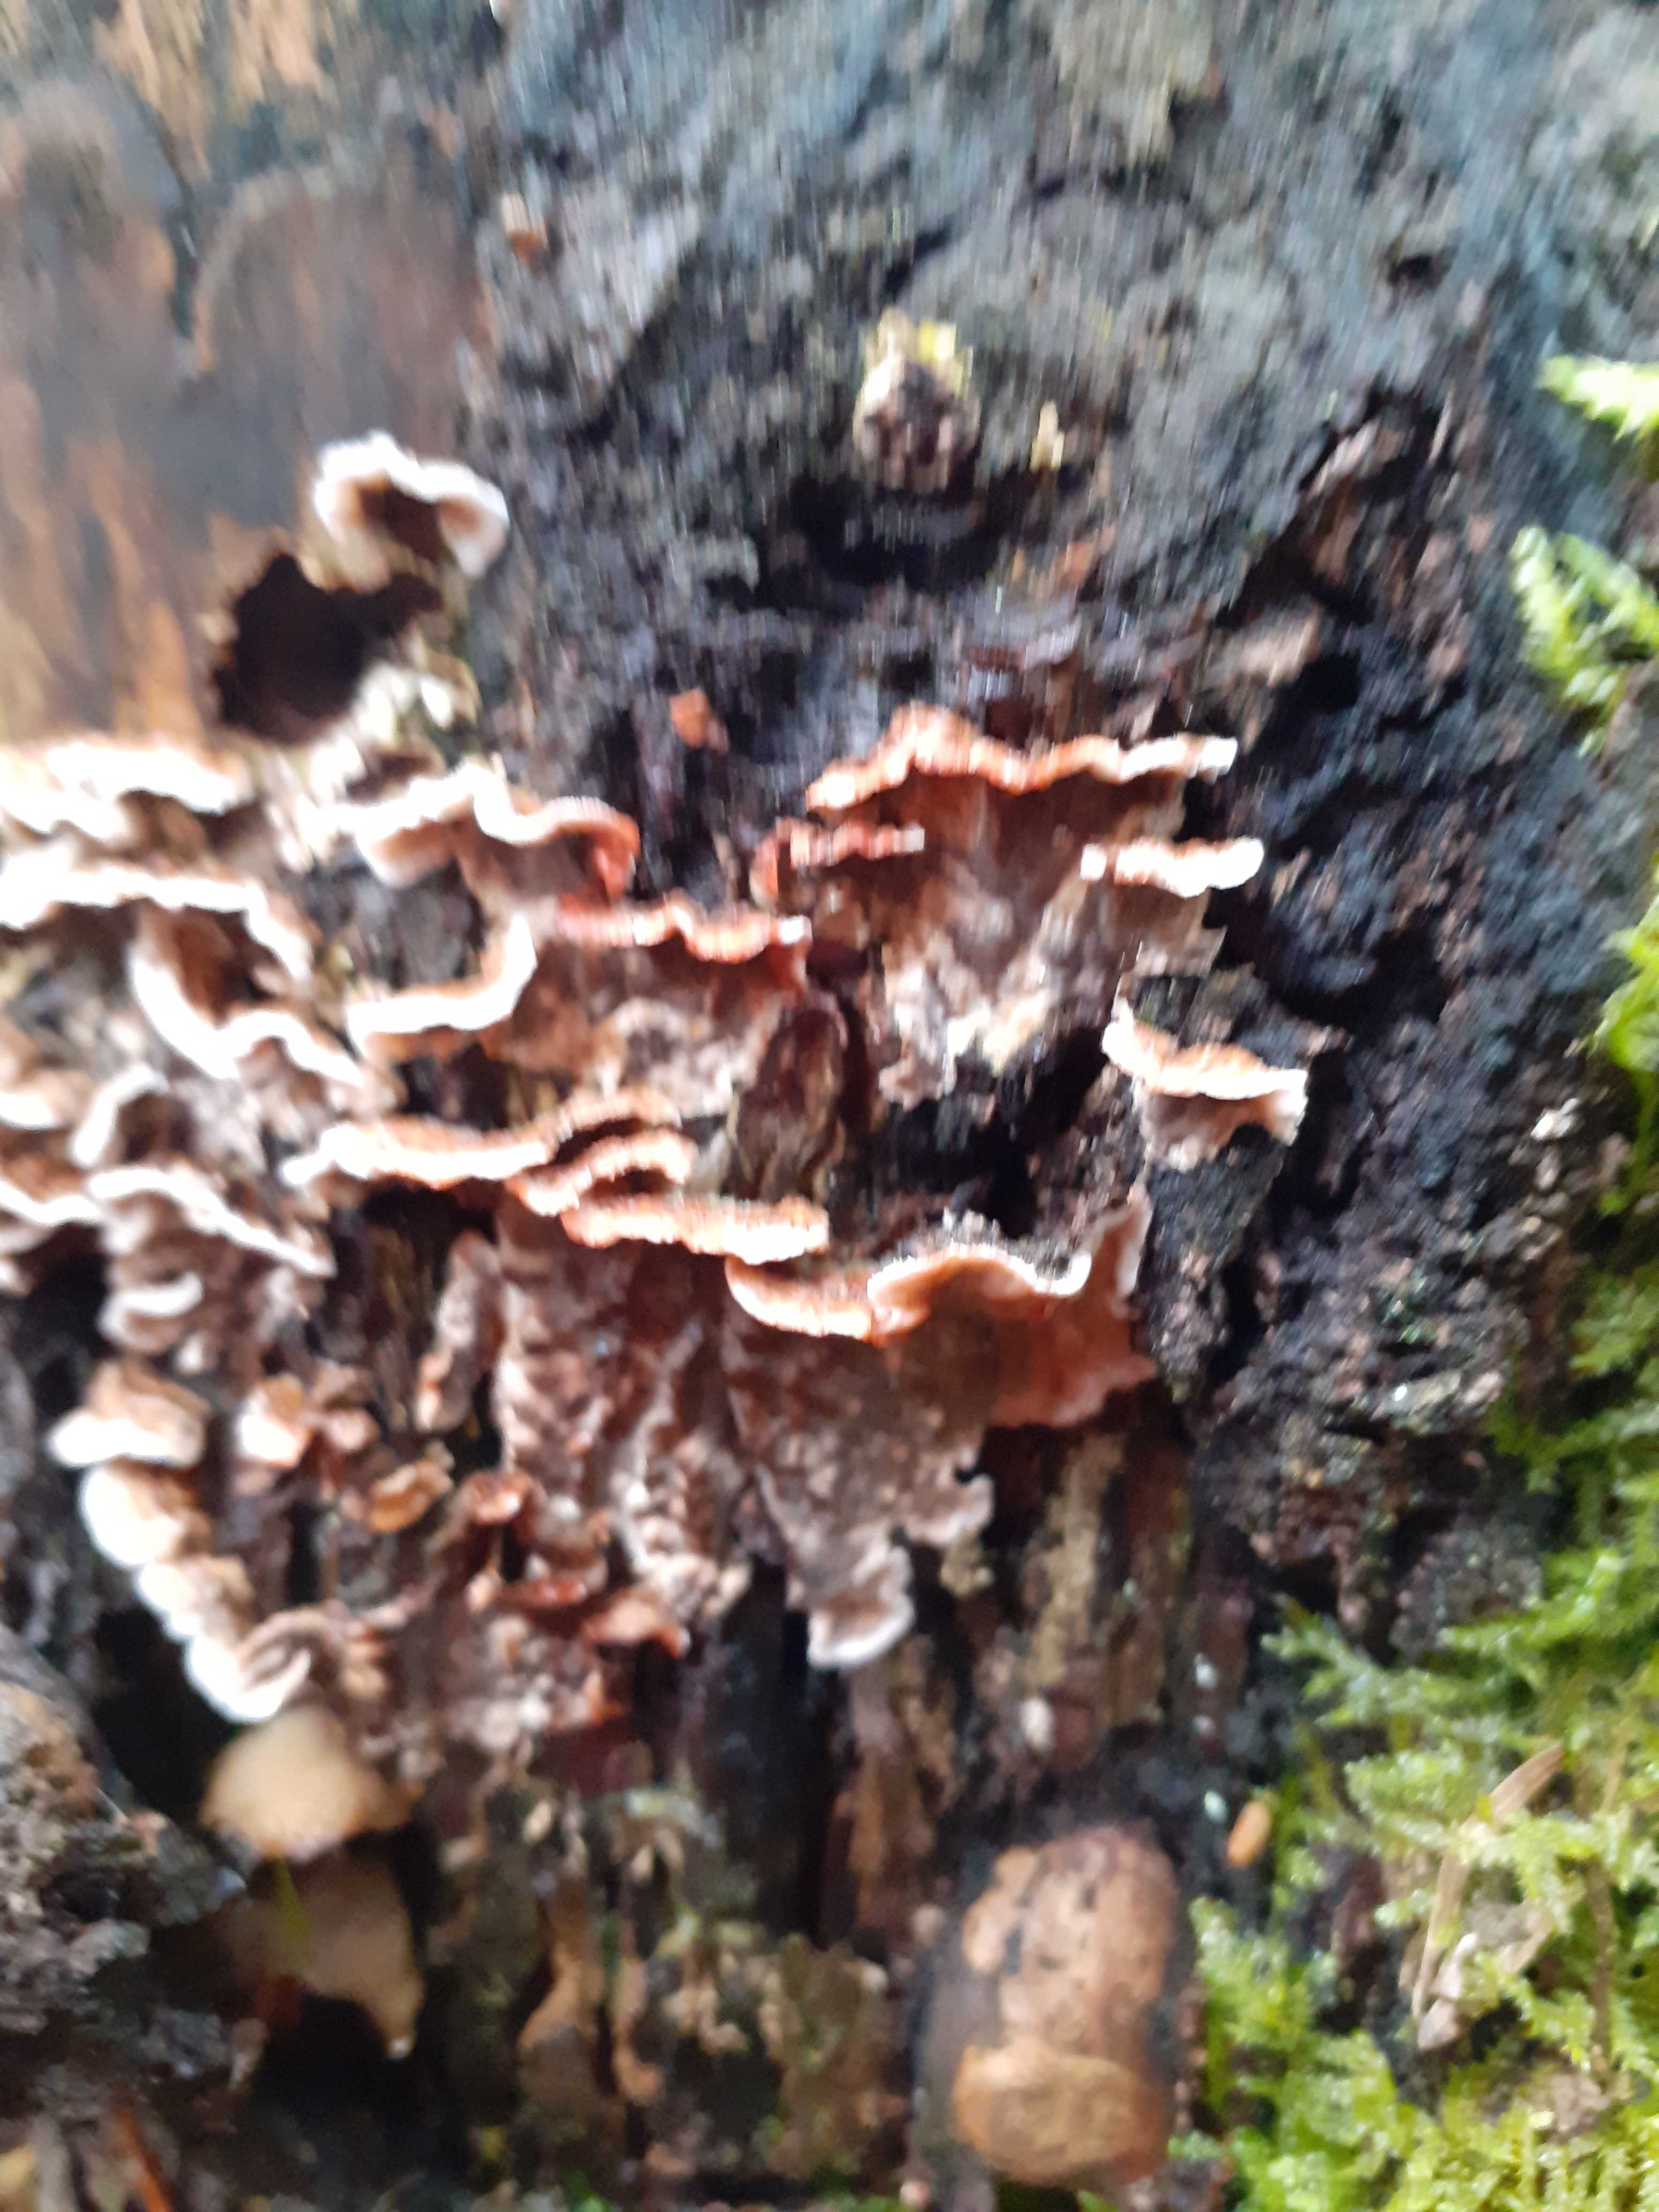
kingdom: Fungi
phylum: Basidiomycota
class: Agaricomycetes
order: Russulales
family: Stereaceae
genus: Stereum
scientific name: Stereum sanguinolentum
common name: blødende lædersvamp
